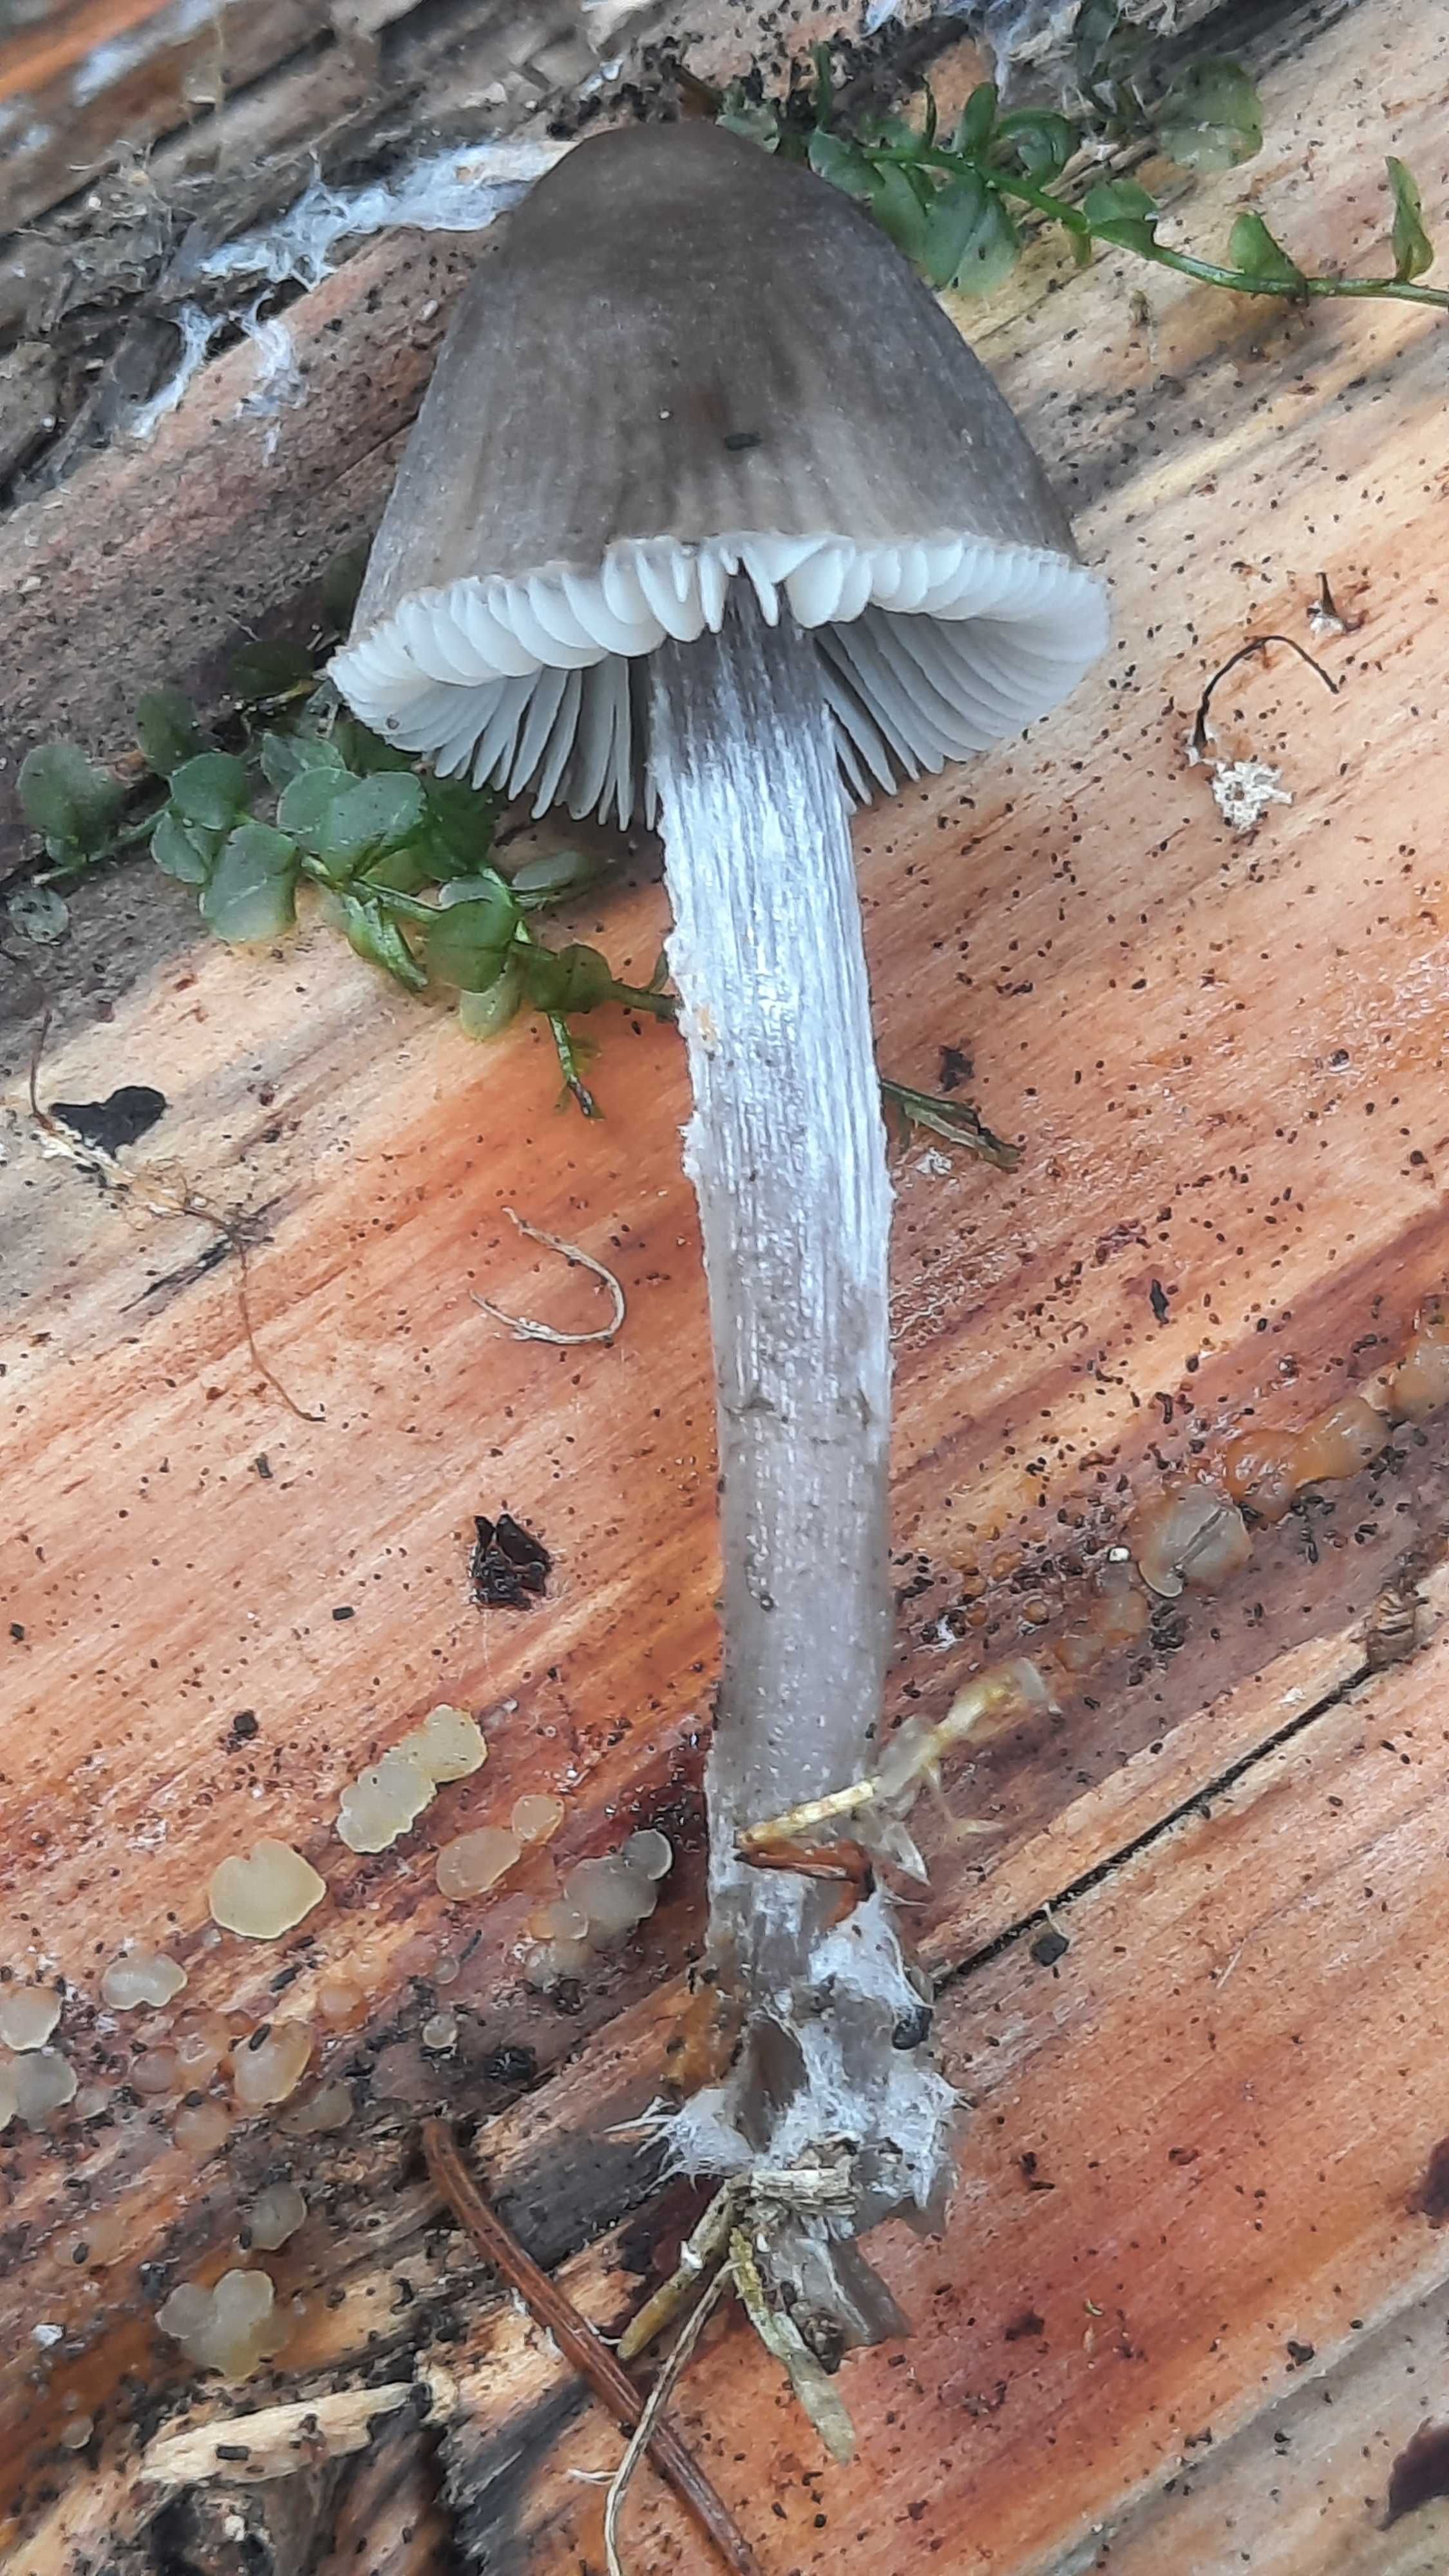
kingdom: Fungi
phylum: Basidiomycota
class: Agaricomycetes
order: Agaricales
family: Mycenaceae
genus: Mycena
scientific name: Mycena
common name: huesvamp
